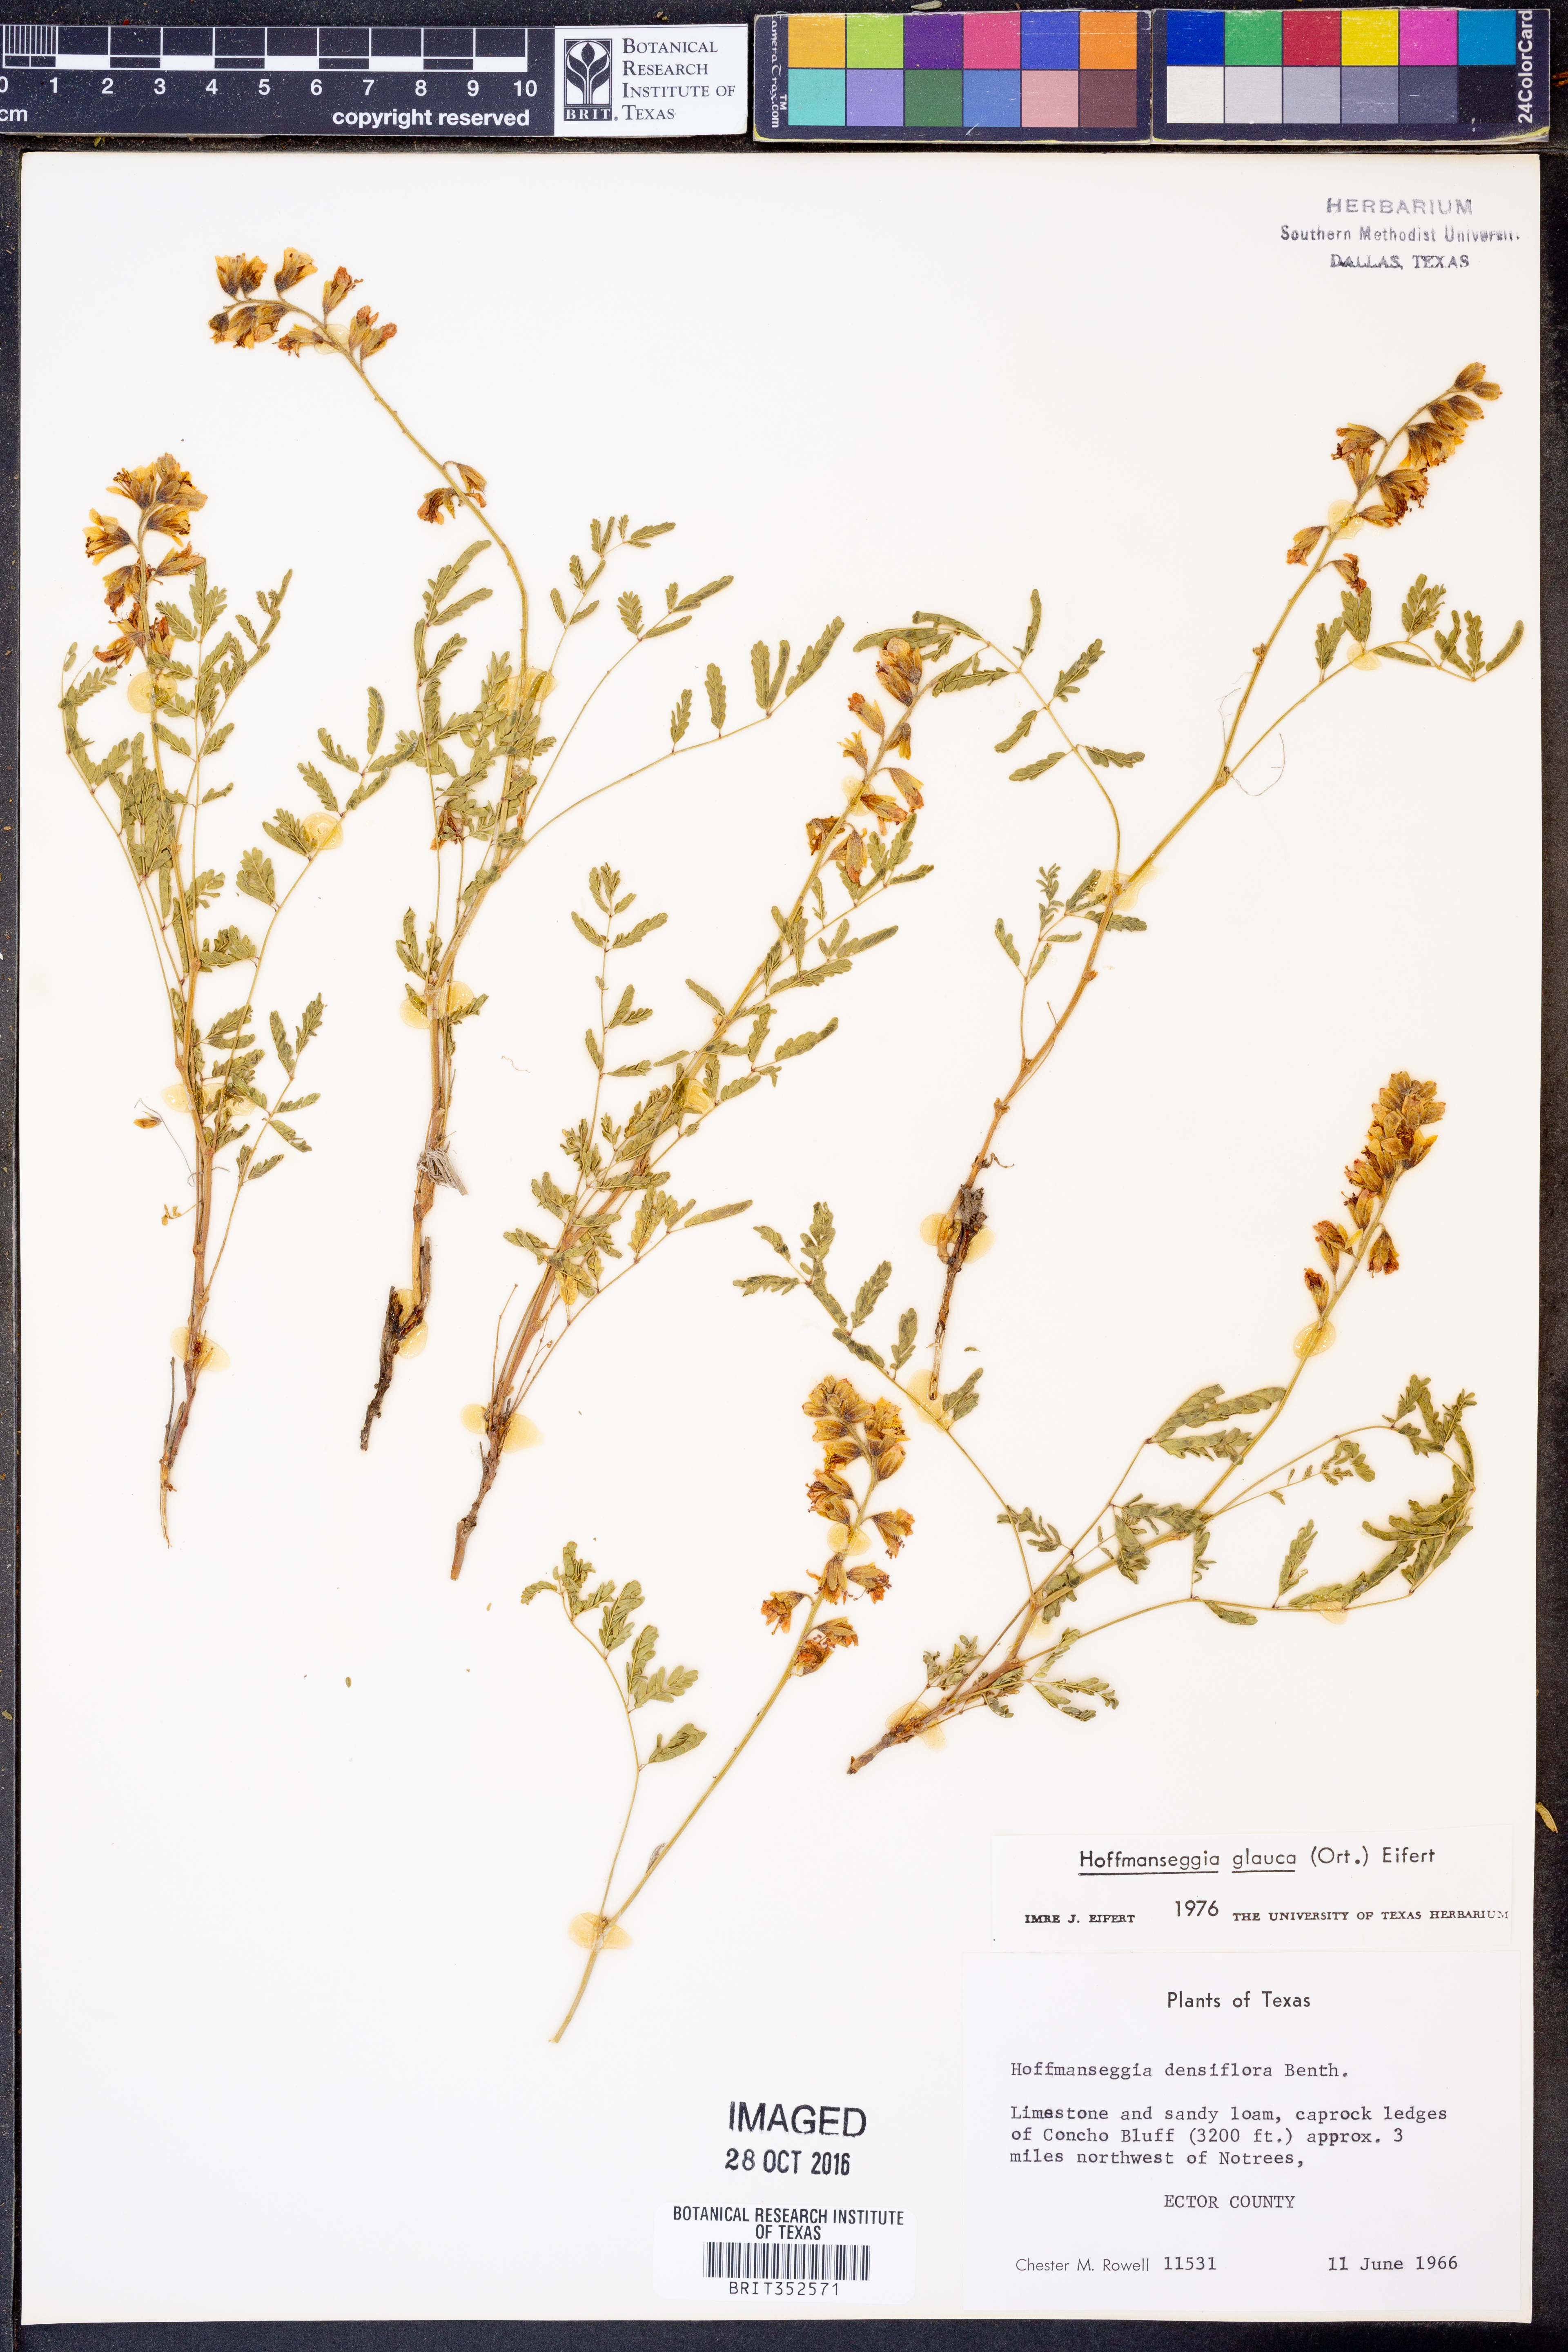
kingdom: Plantae
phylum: Tracheophyta
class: Magnoliopsida
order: Fabales
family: Fabaceae
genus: Hoffmannseggia
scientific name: Hoffmannseggia glauca
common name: Pignut
